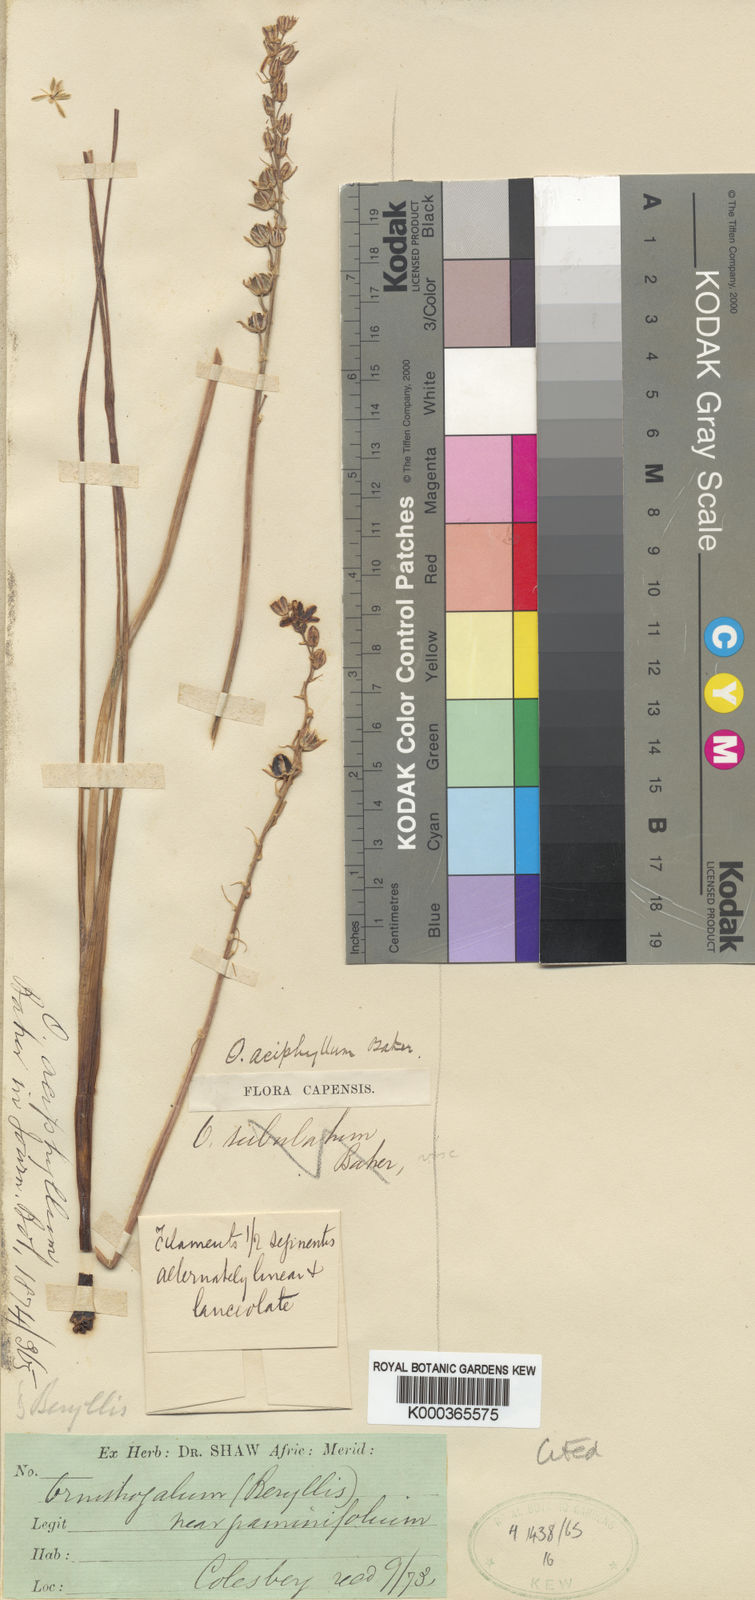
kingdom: Plantae
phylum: Tracheophyta
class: Liliopsida
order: Asparagales
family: Asparagaceae
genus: Ornithogalum
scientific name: Ornithogalum
